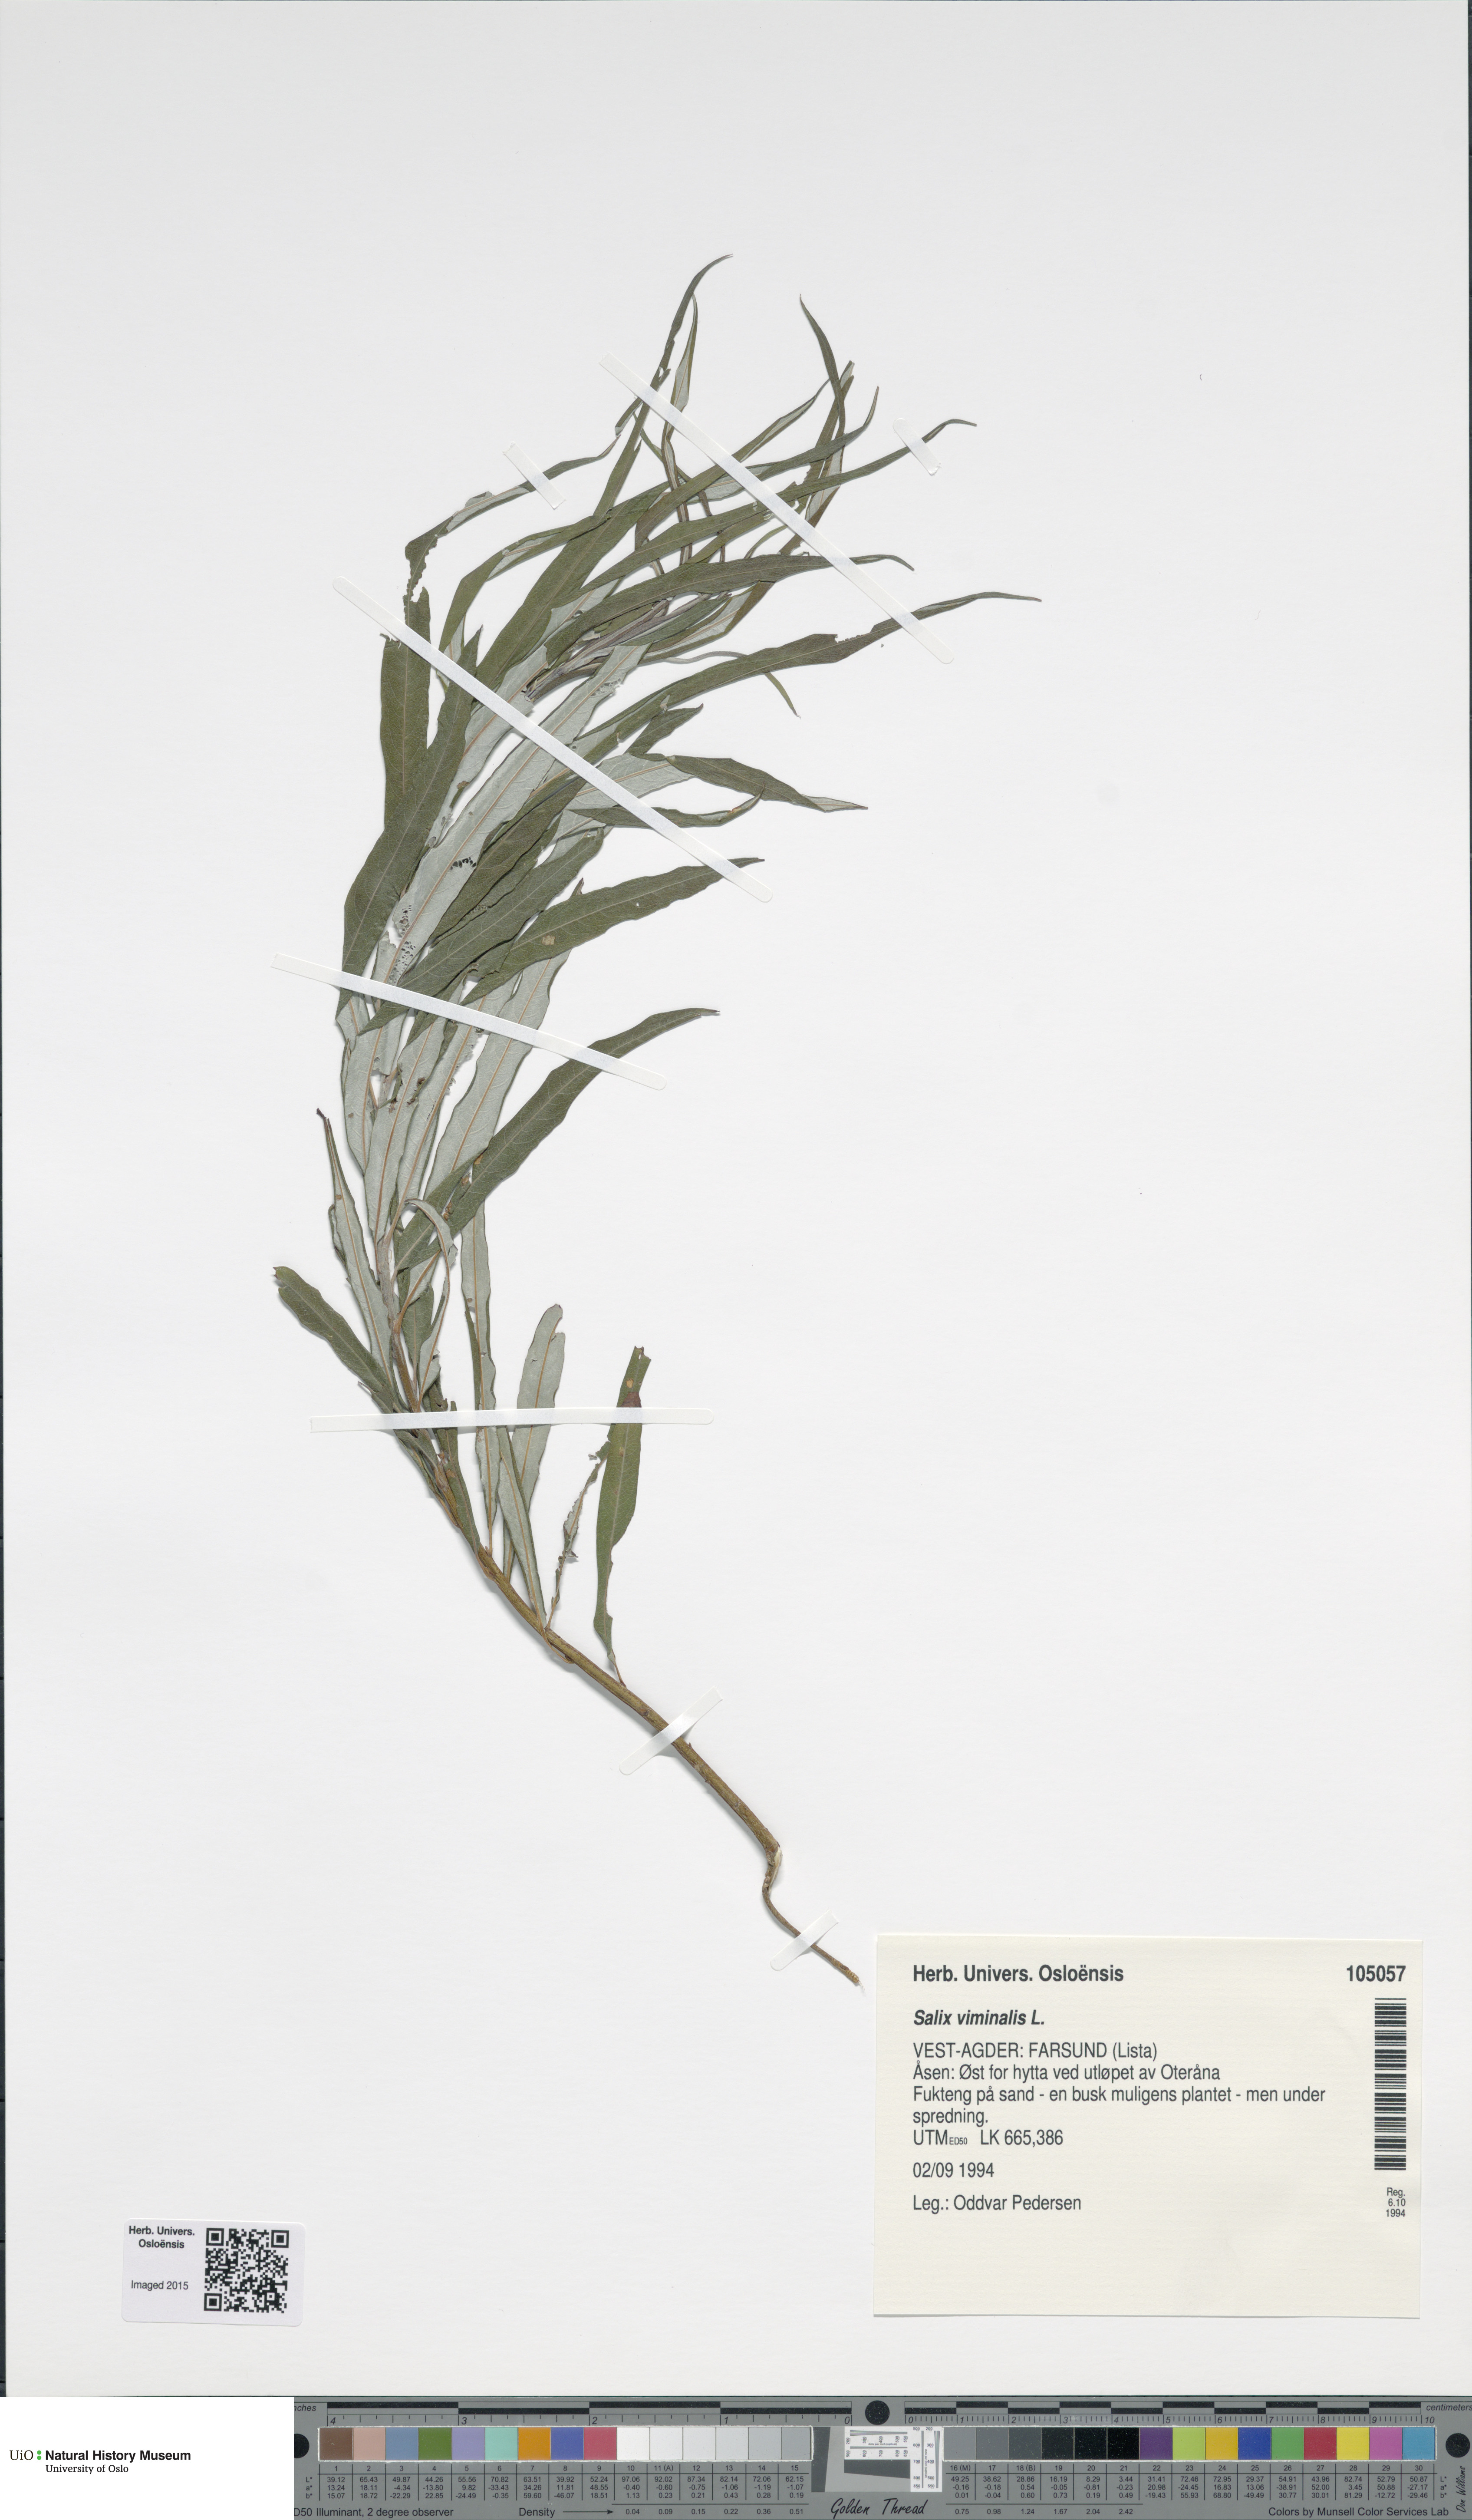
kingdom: Plantae
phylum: Tracheophyta
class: Magnoliopsida
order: Malpighiales
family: Salicaceae
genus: Salix
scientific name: Salix viminalis
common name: Osier
